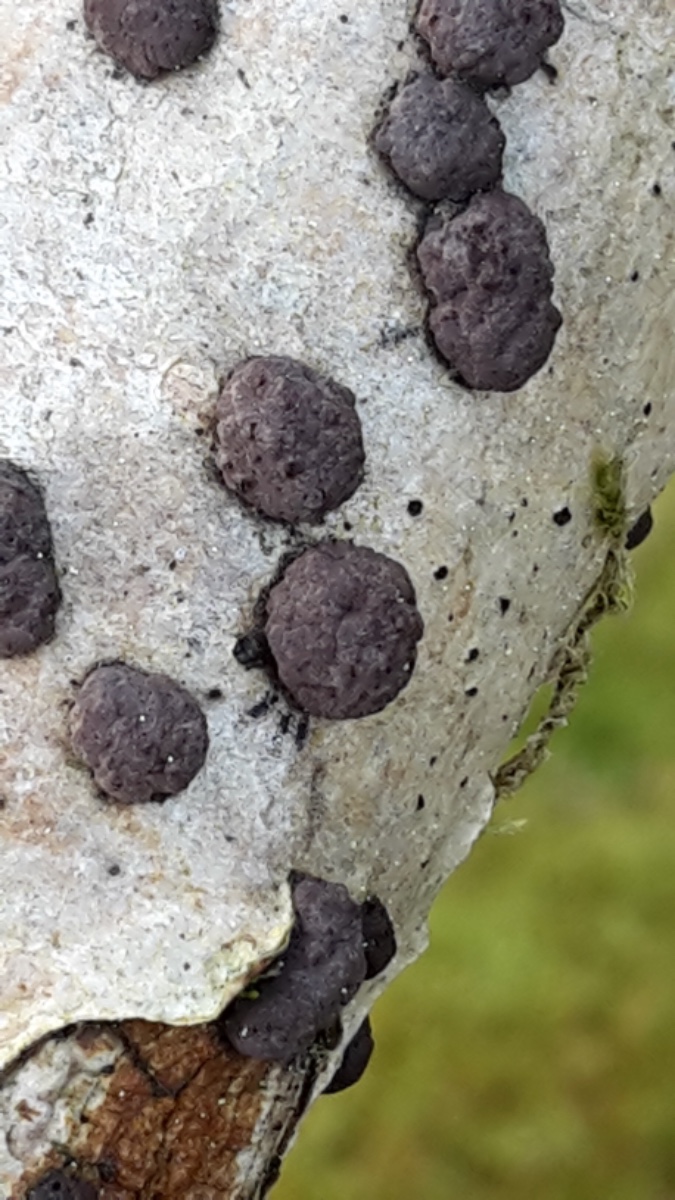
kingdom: Fungi
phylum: Ascomycota
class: Sordariomycetes
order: Xylariales
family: Hypoxylaceae
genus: Hypoxylon
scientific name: Hypoxylon fuscum
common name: kegleformet kulbær
